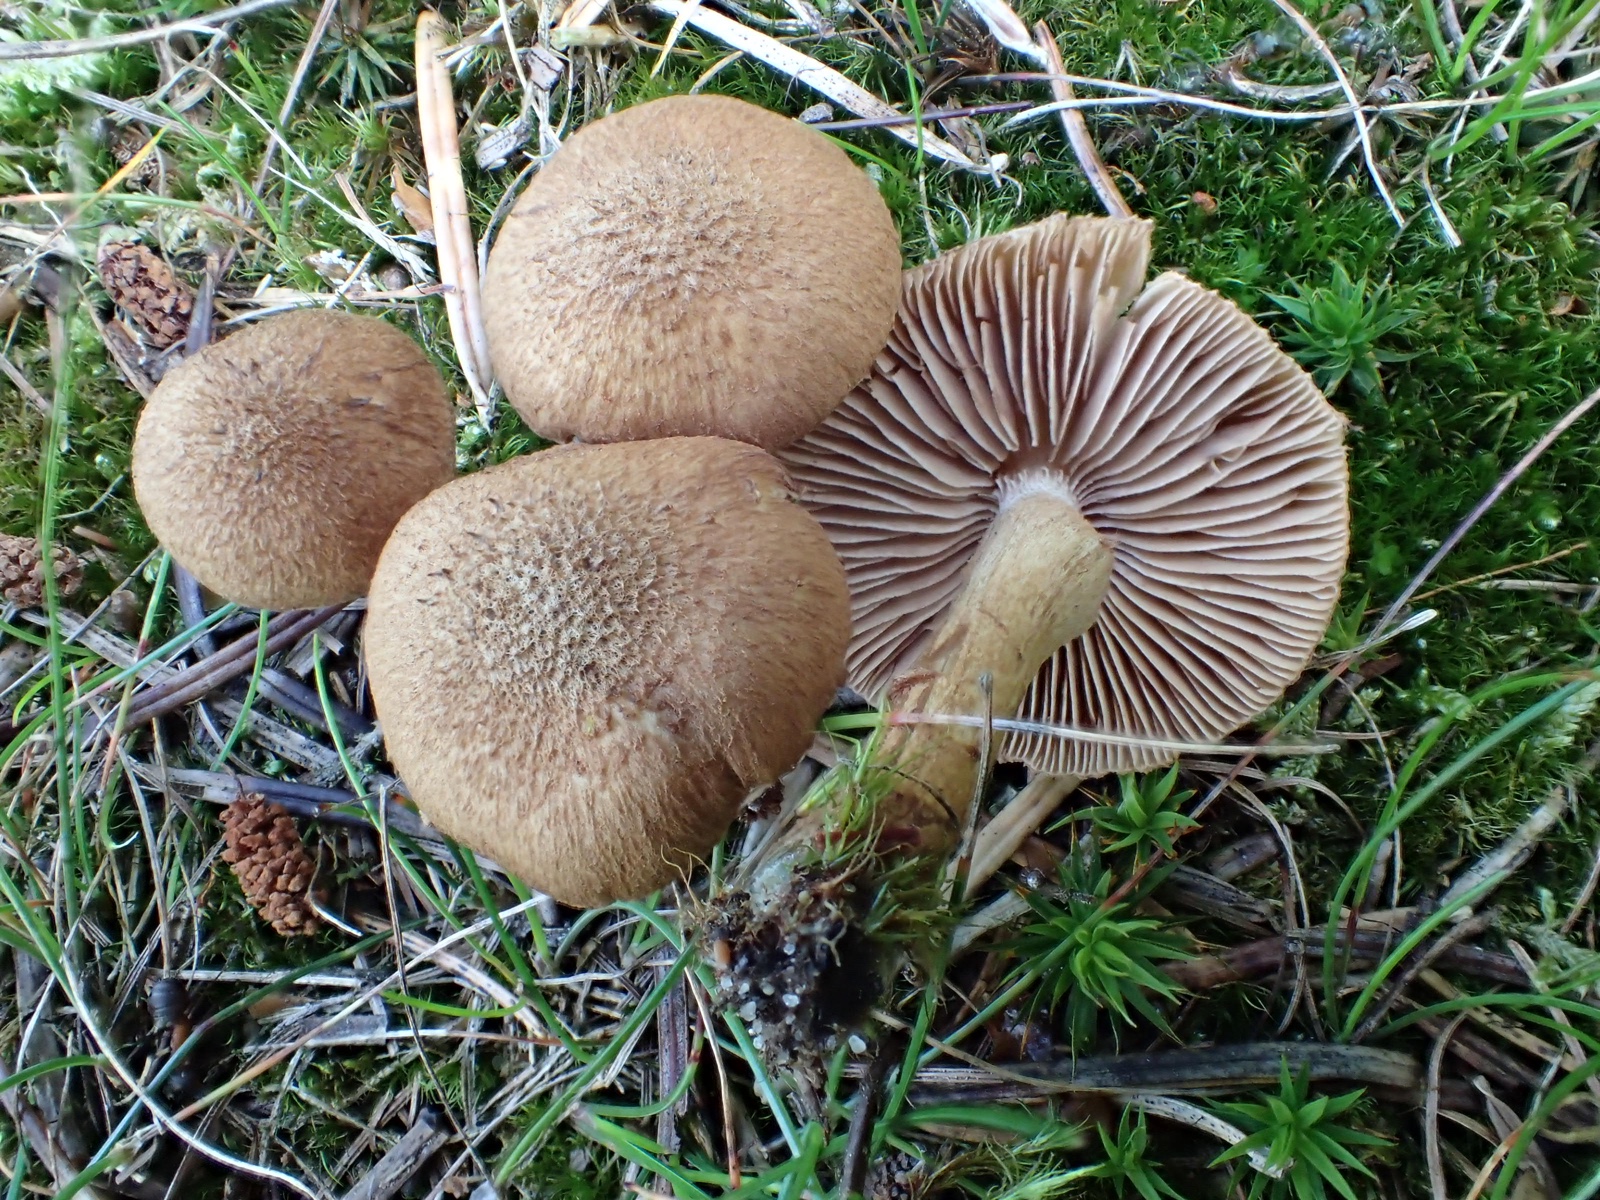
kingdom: Fungi
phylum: Basidiomycota
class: Agaricomycetes
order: Agaricales
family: Inocybaceae
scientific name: Inocybaceae
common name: trævlhatfamilien
